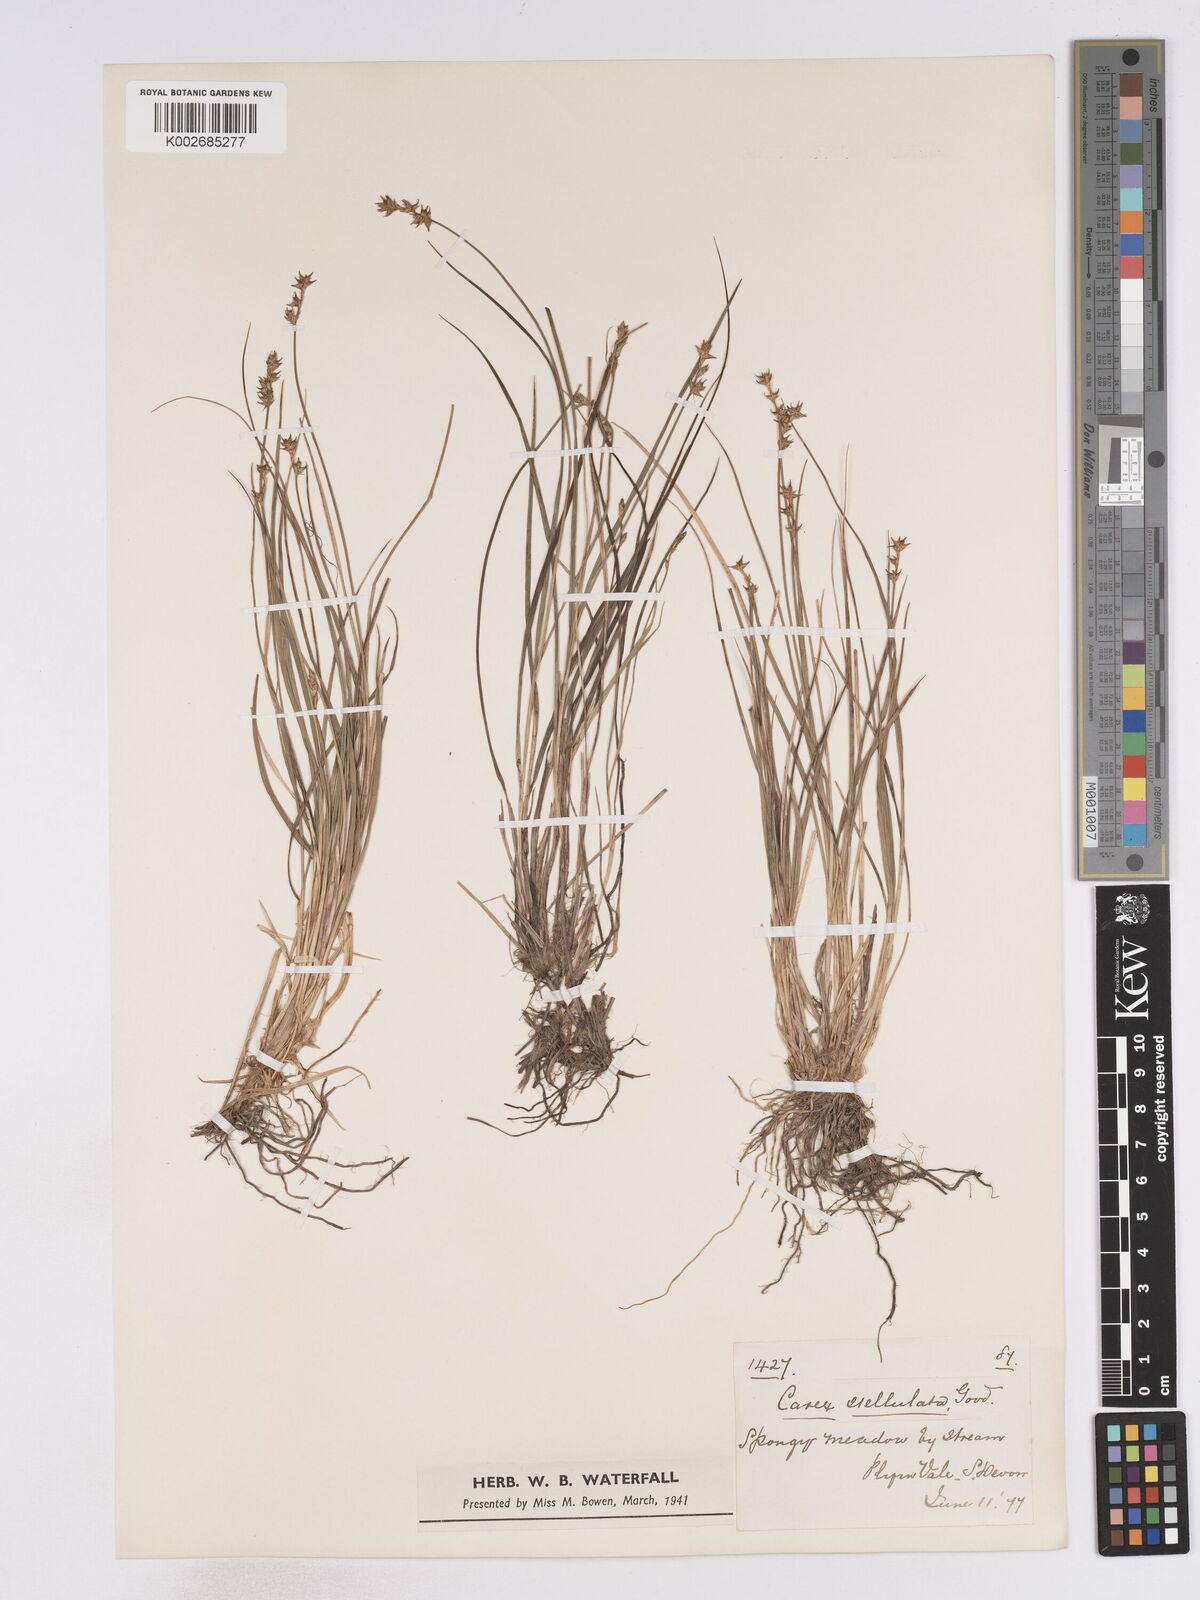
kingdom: Plantae
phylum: Tracheophyta
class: Liliopsida
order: Poales
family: Cyperaceae
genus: Carex
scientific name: Carex echinata
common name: Star sedge
